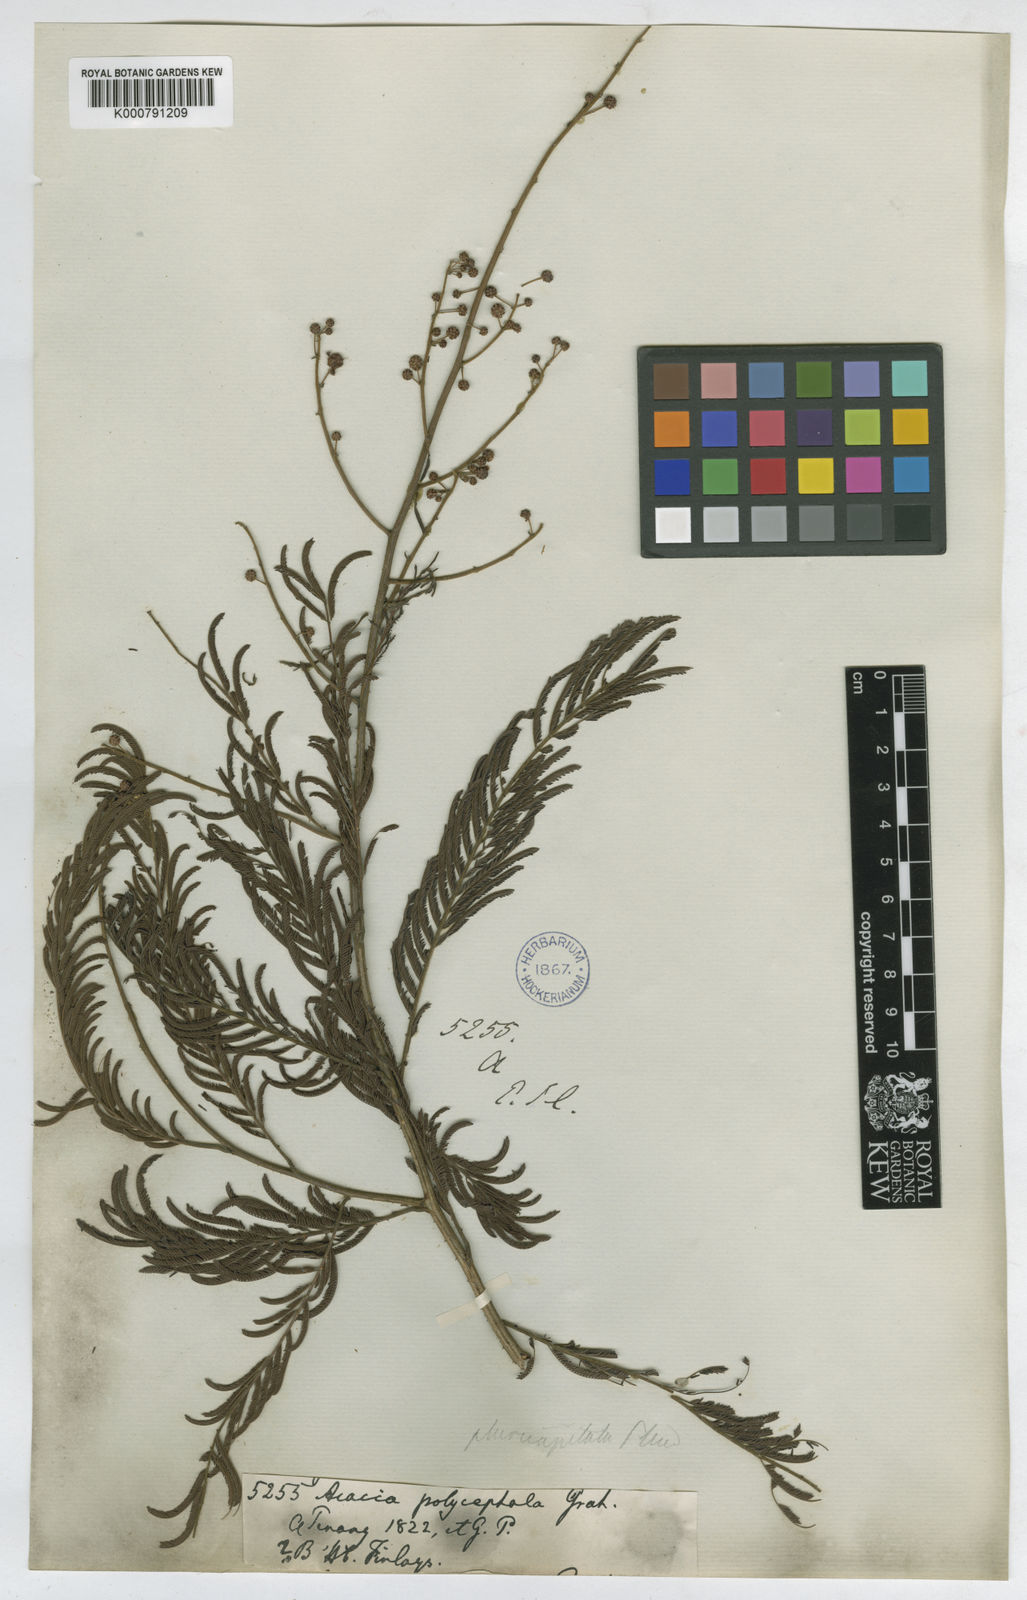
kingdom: Plantae
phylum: Tracheophyta
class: Magnoliopsida
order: Fabales
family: Fabaceae
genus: Senegalia
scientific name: Senegalia pennata
